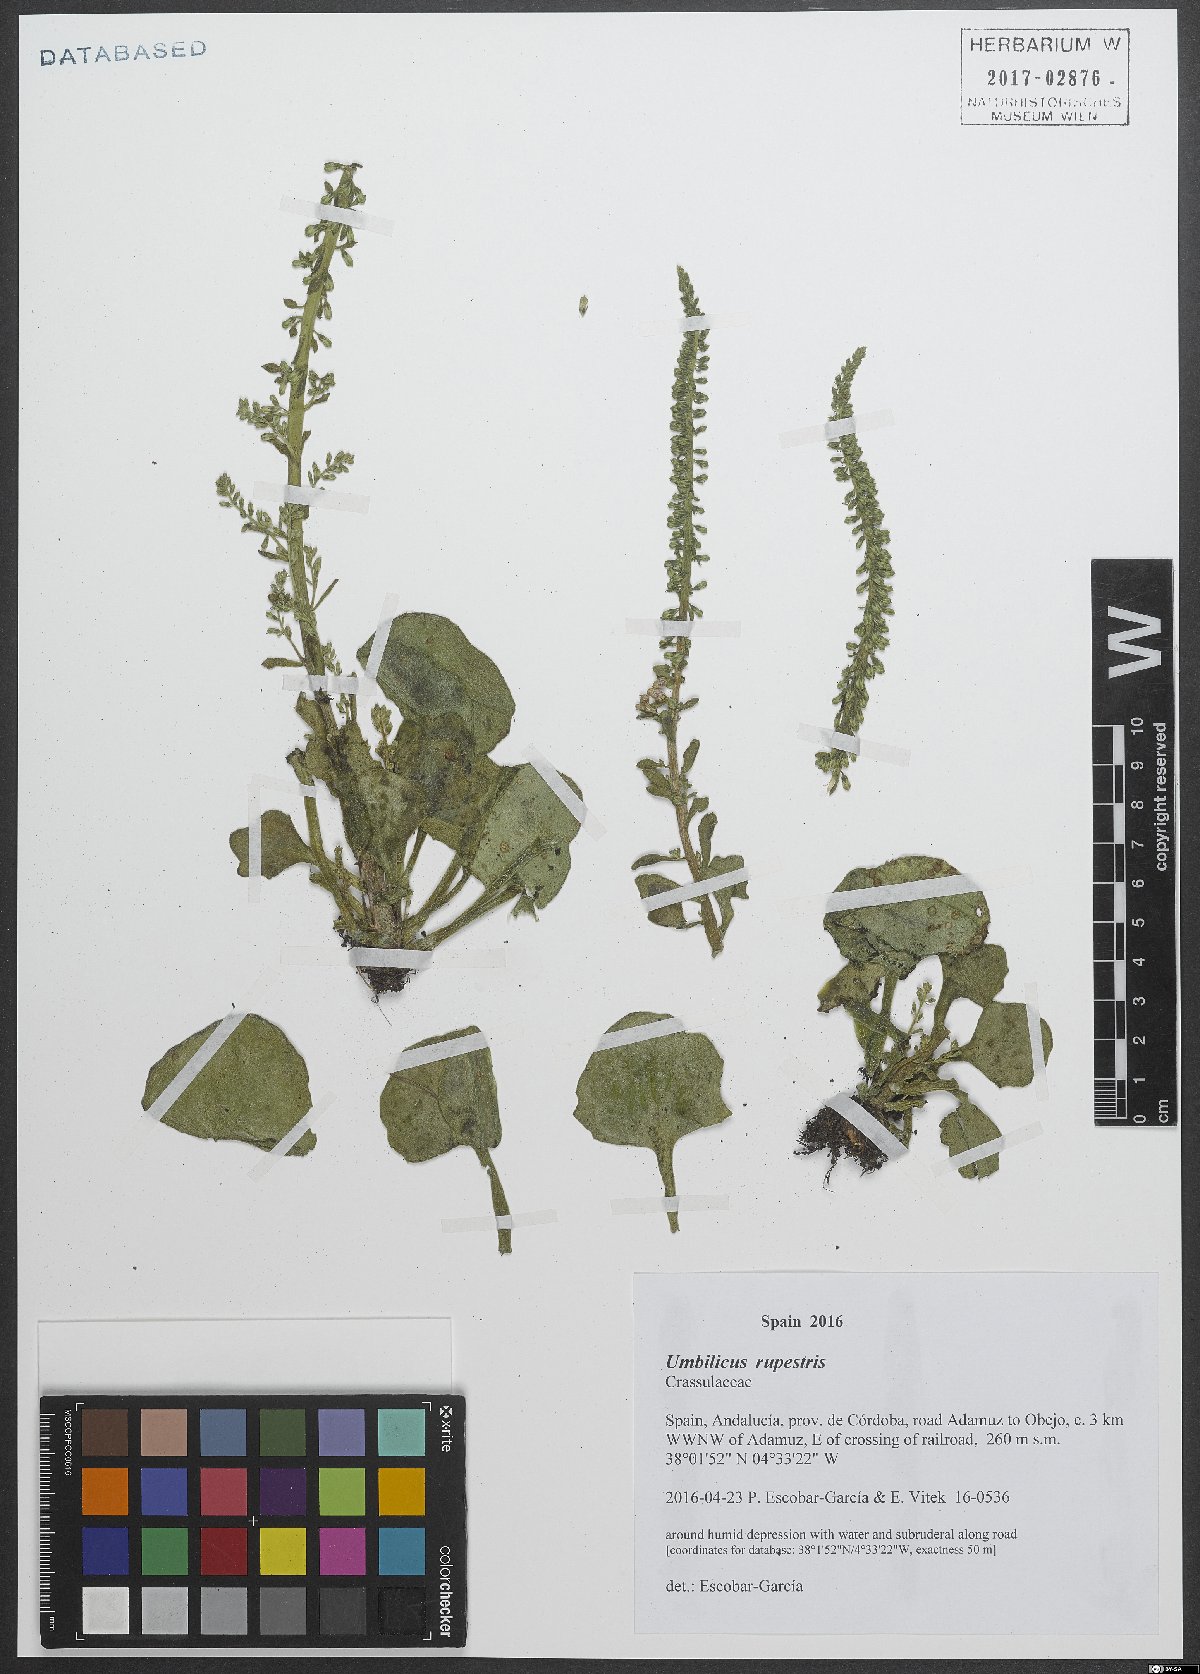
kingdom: Plantae
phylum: Tracheophyta
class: Magnoliopsida
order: Saxifragales
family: Crassulaceae
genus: Umbilicus
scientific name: Umbilicus rupestris
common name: Navelwort
